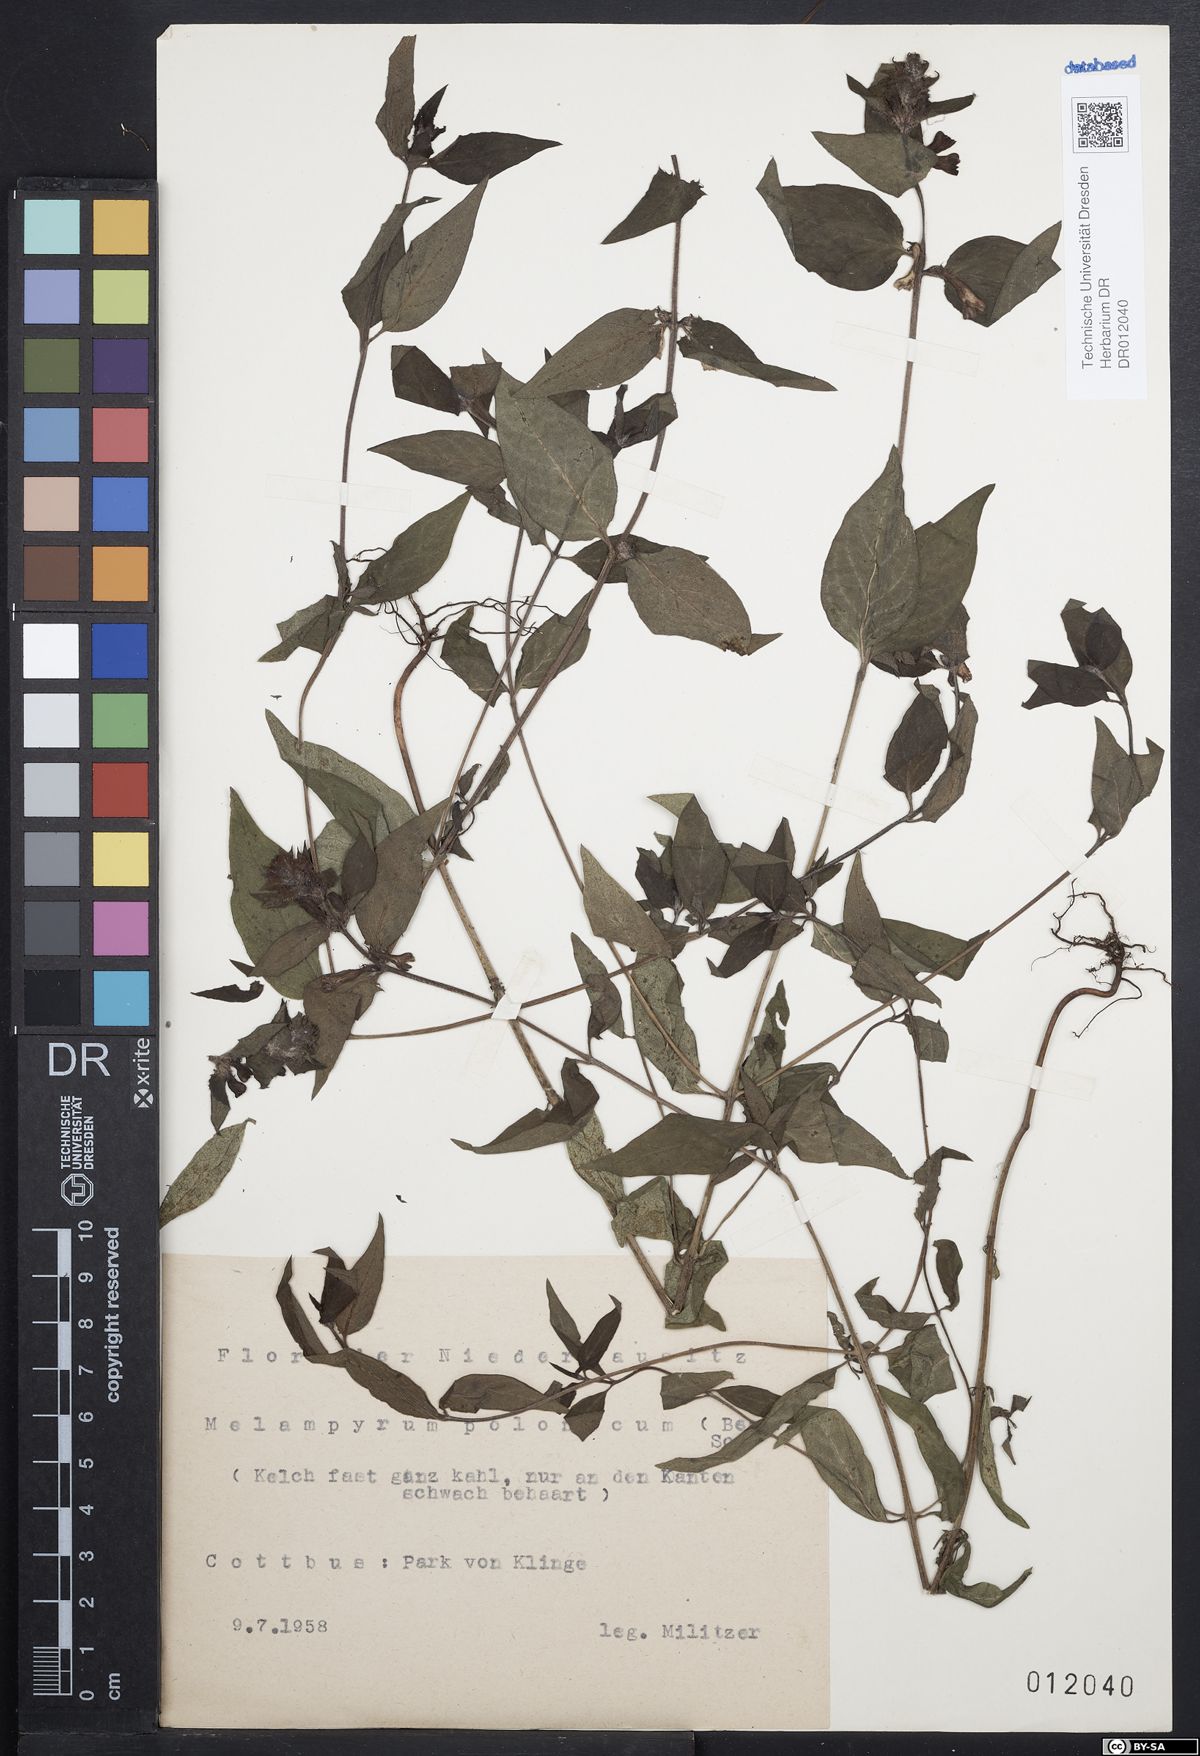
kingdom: Plantae
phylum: Tracheophyta
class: Magnoliopsida
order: Lamiales
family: Orobanchaceae
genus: Melampyrum
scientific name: Melampyrum polonicum
